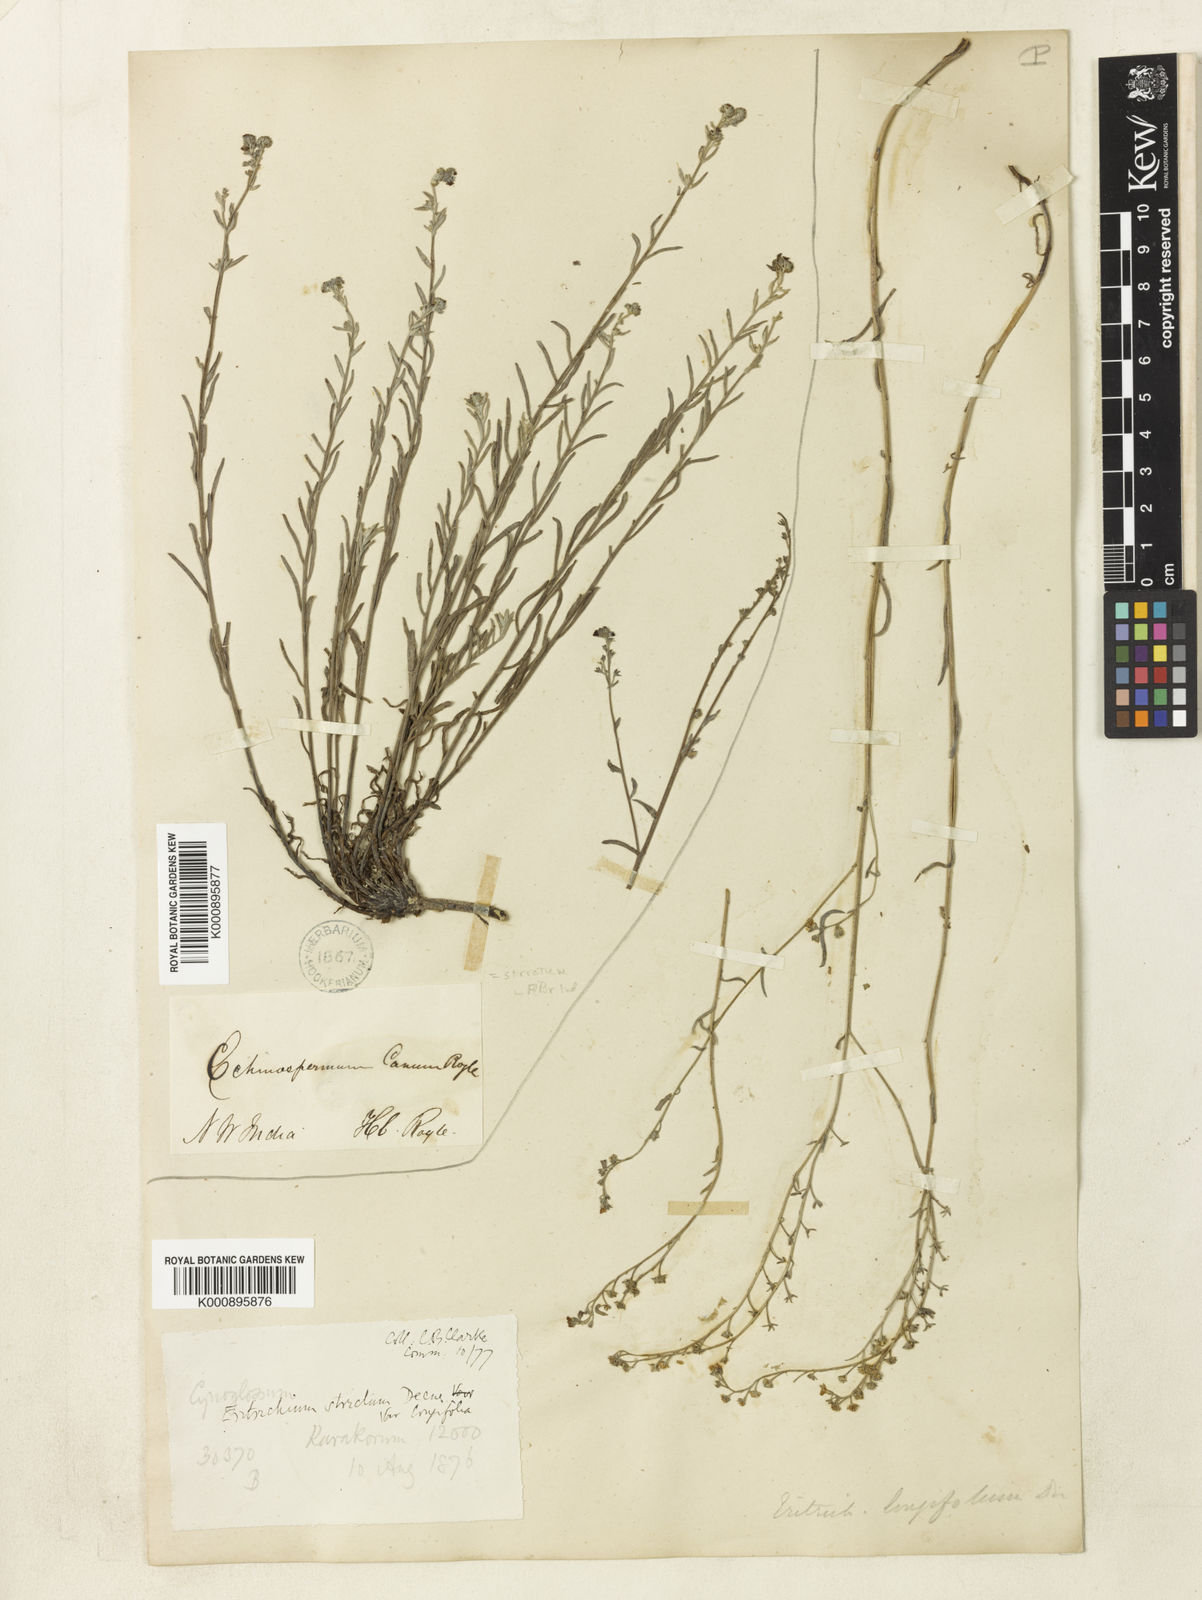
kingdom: Plantae
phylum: Tracheophyta
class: Magnoliopsida
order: Boraginales
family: Boraginaceae
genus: Eritrichium
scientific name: Eritrichium fruticulosum
